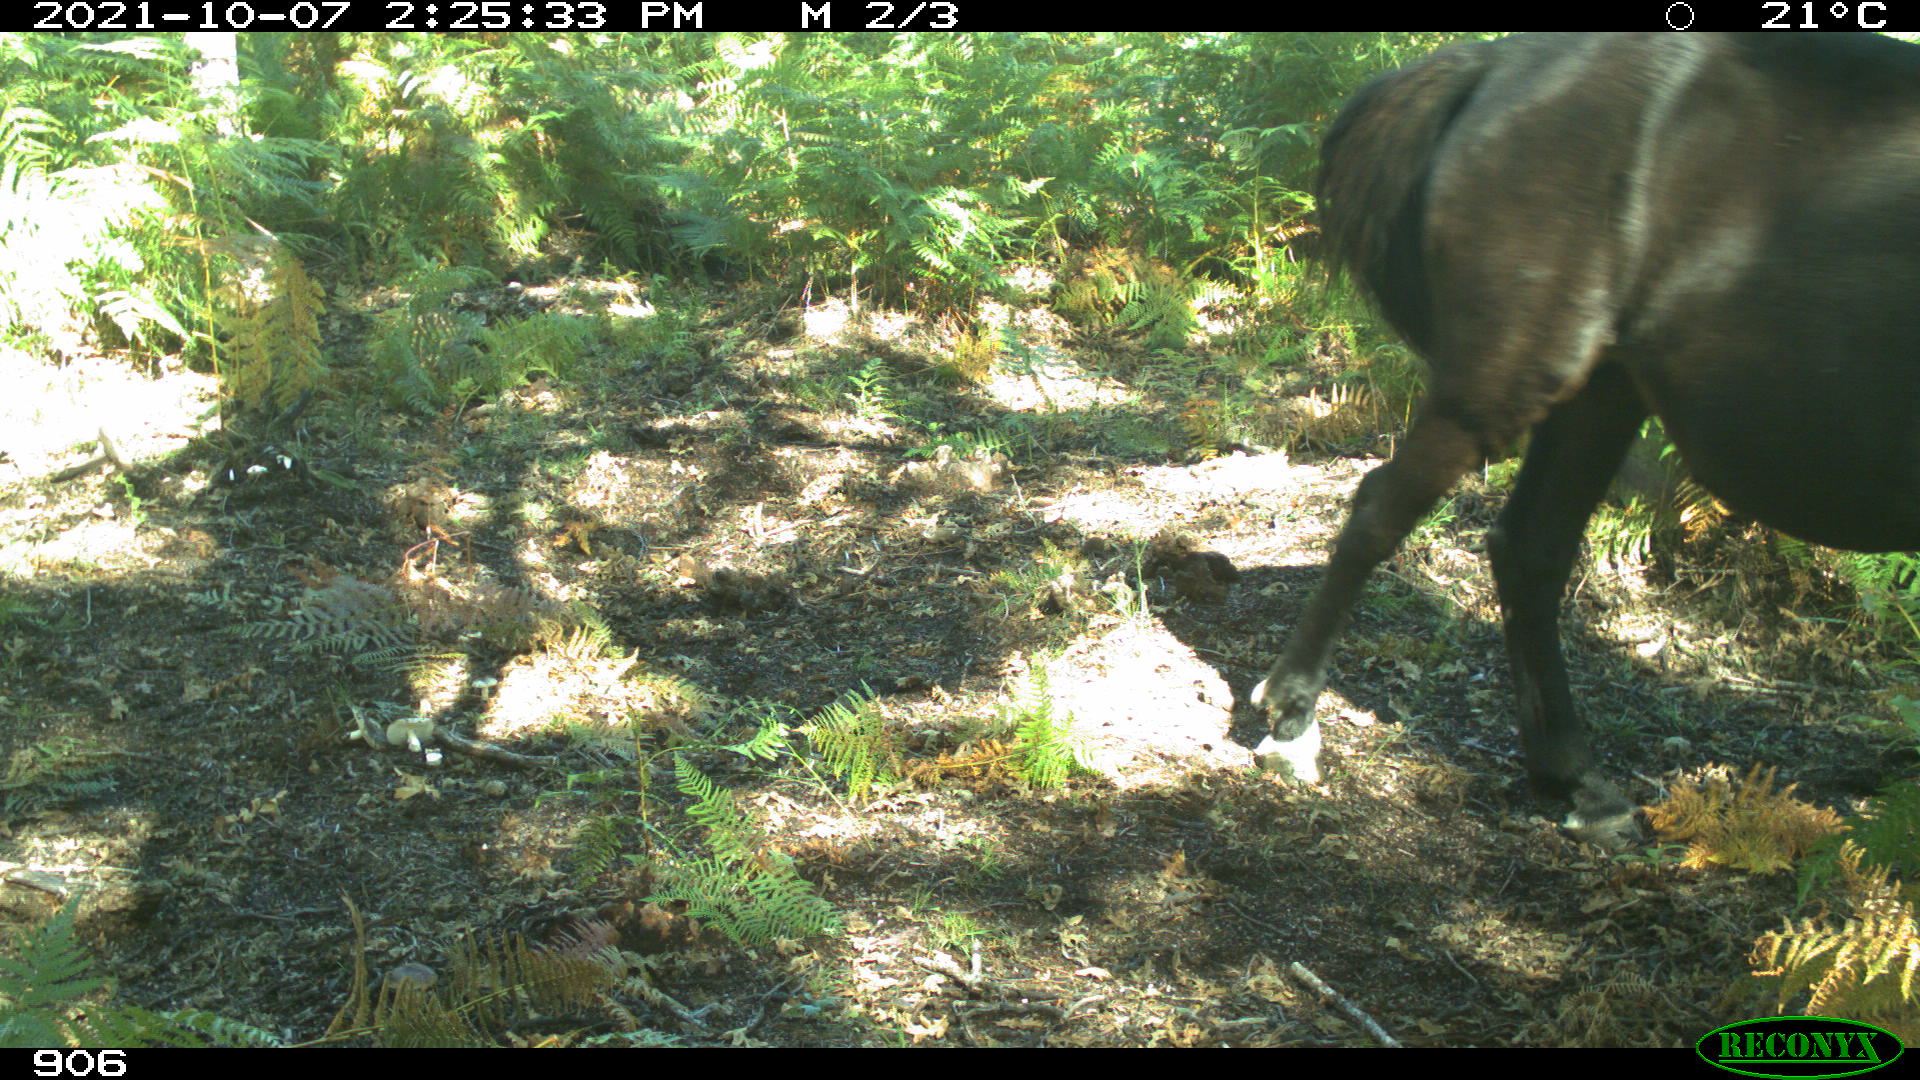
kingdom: Animalia
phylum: Chordata
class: Mammalia
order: Perissodactyla
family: Equidae
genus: Equus
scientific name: Equus caballus
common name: Horse
